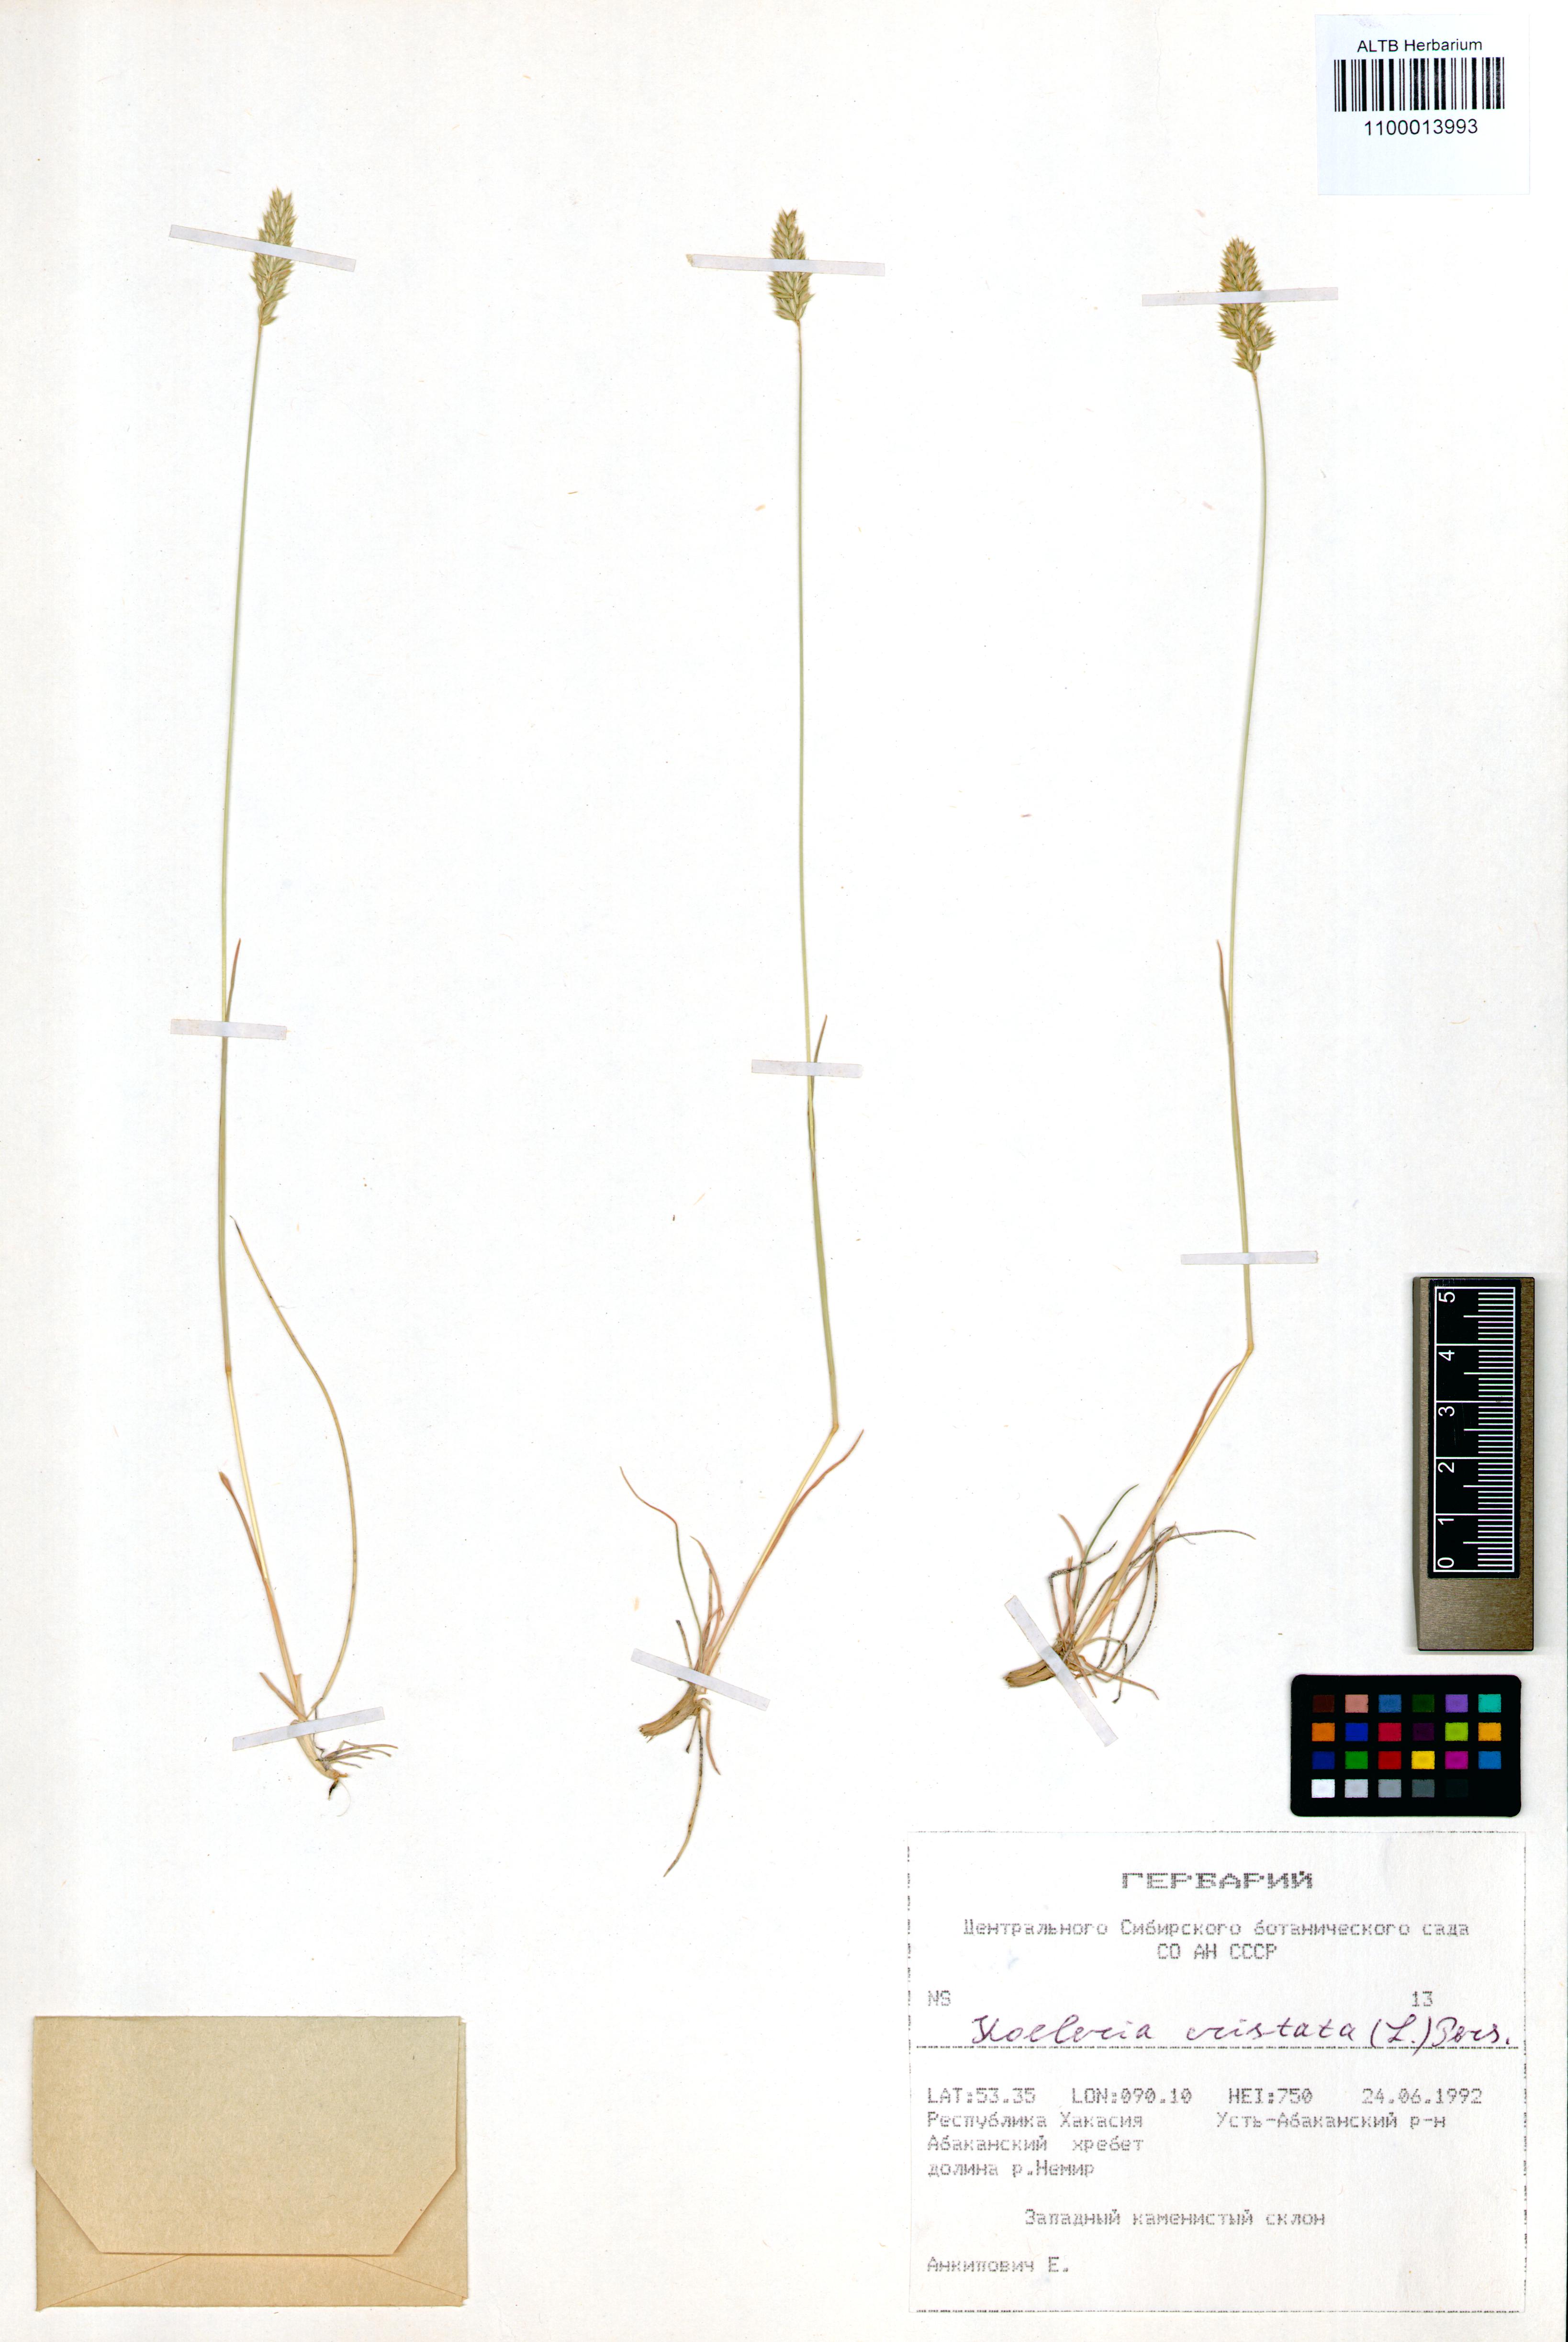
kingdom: Plantae
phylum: Tracheophyta
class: Liliopsida
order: Poales
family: Poaceae
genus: Koeleria
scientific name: Koeleria pyramidata
